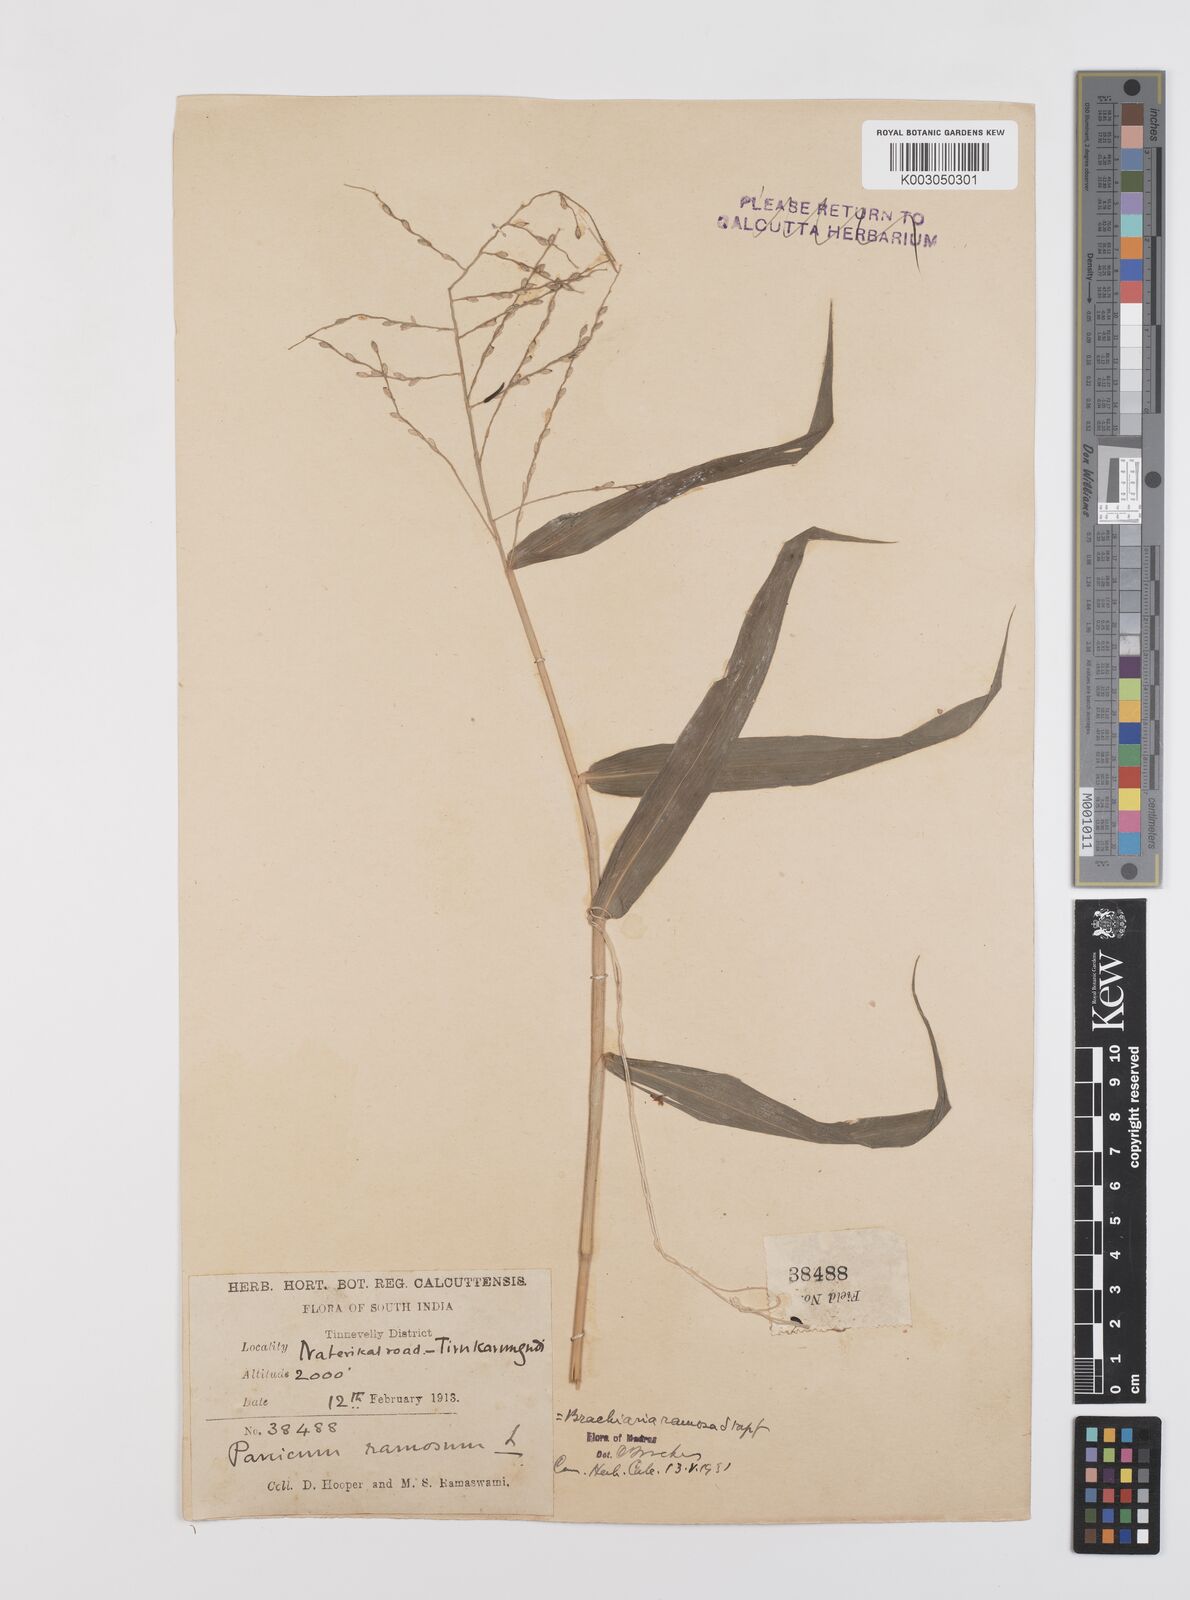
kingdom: Plantae
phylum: Tracheophyta
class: Liliopsida
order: Poales
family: Poaceae
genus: Urochloa
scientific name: Urochloa ramosa
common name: Browntop millet
